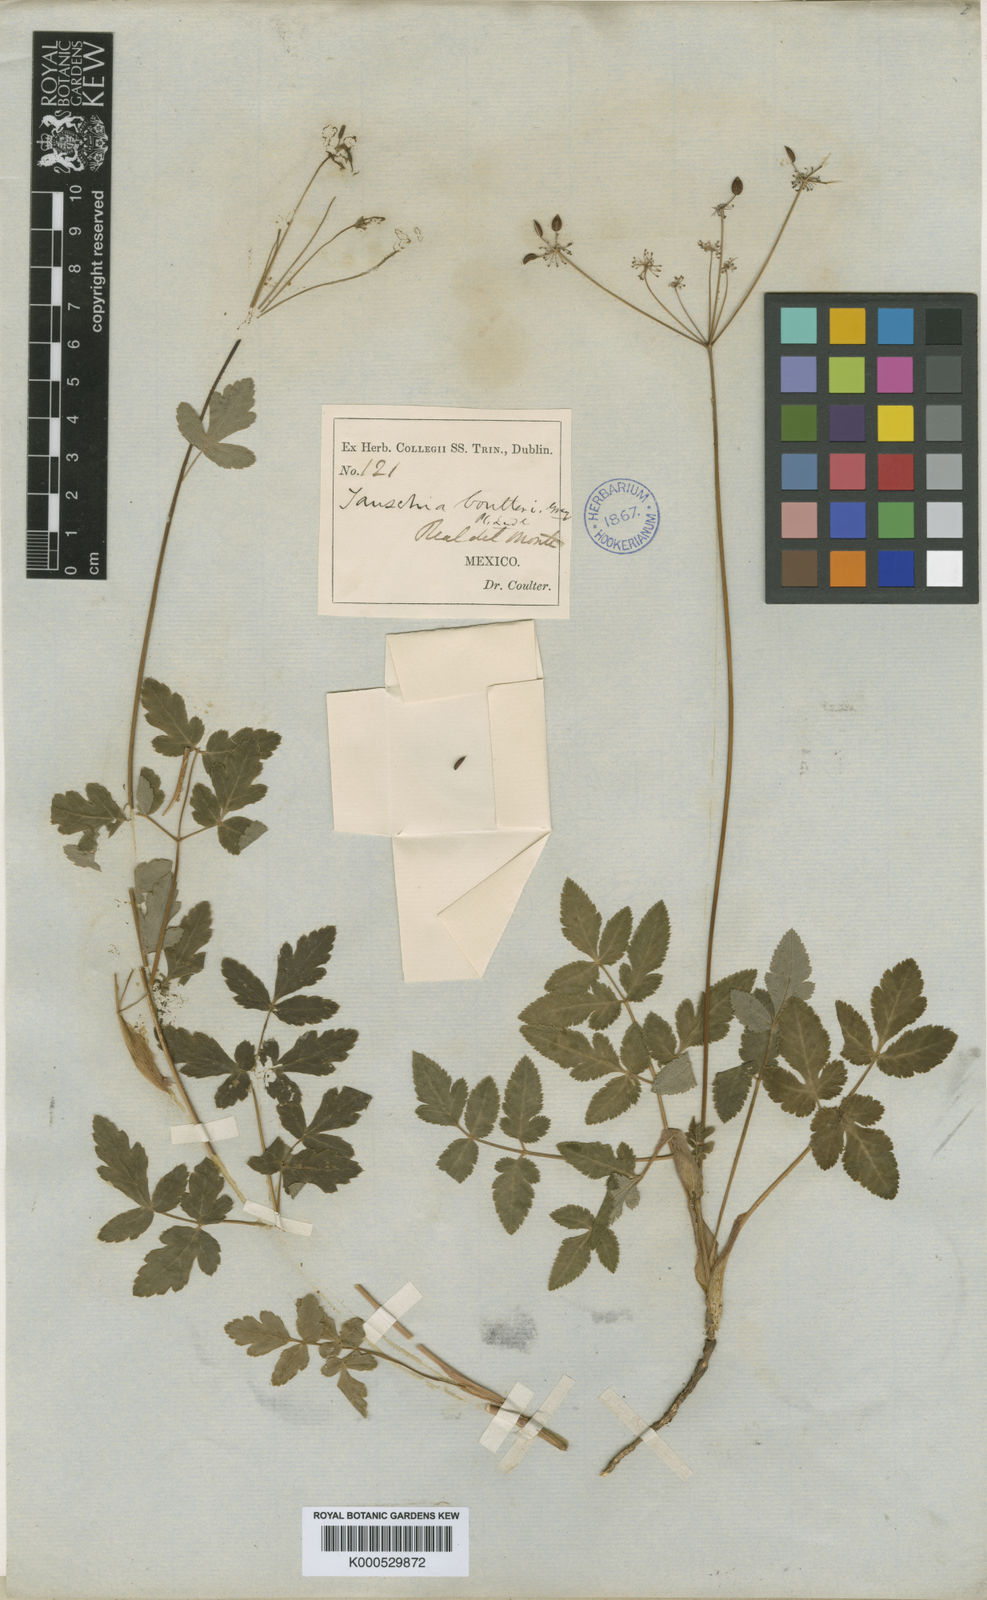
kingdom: Plantae
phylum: Tracheophyta
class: Magnoliopsida
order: Apiales
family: Apiaceae
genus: Arracacia
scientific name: Arracacia aegopodioides
